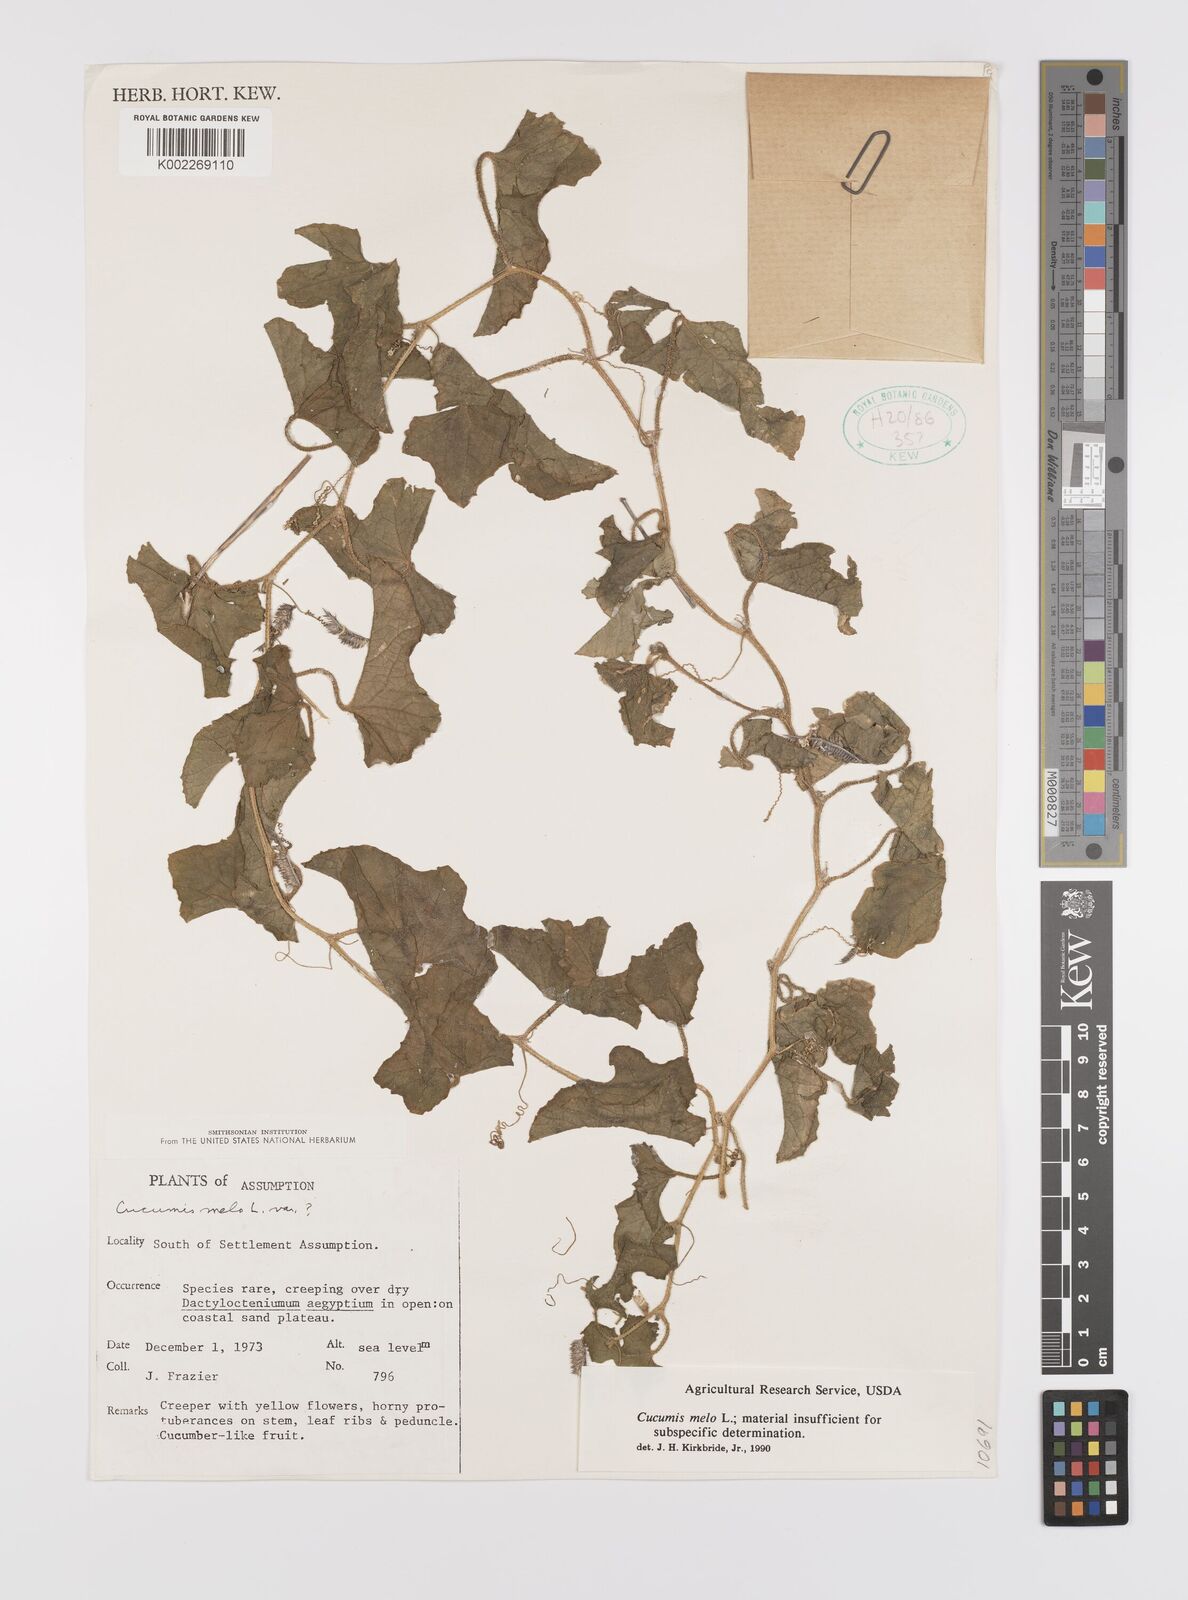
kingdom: Plantae
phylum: Tracheophyta
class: Magnoliopsida
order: Cucurbitales
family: Cucurbitaceae
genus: Cucumis
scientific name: Cucumis melo
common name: Melon
